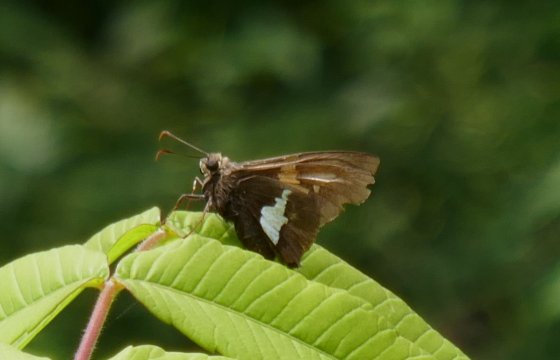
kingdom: Animalia
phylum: Arthropoda
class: Insecta
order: Lepidoptera
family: Hesperiidae
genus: Epargyreus
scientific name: Epargyreus clarus
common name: Silver-spotted Skipper
